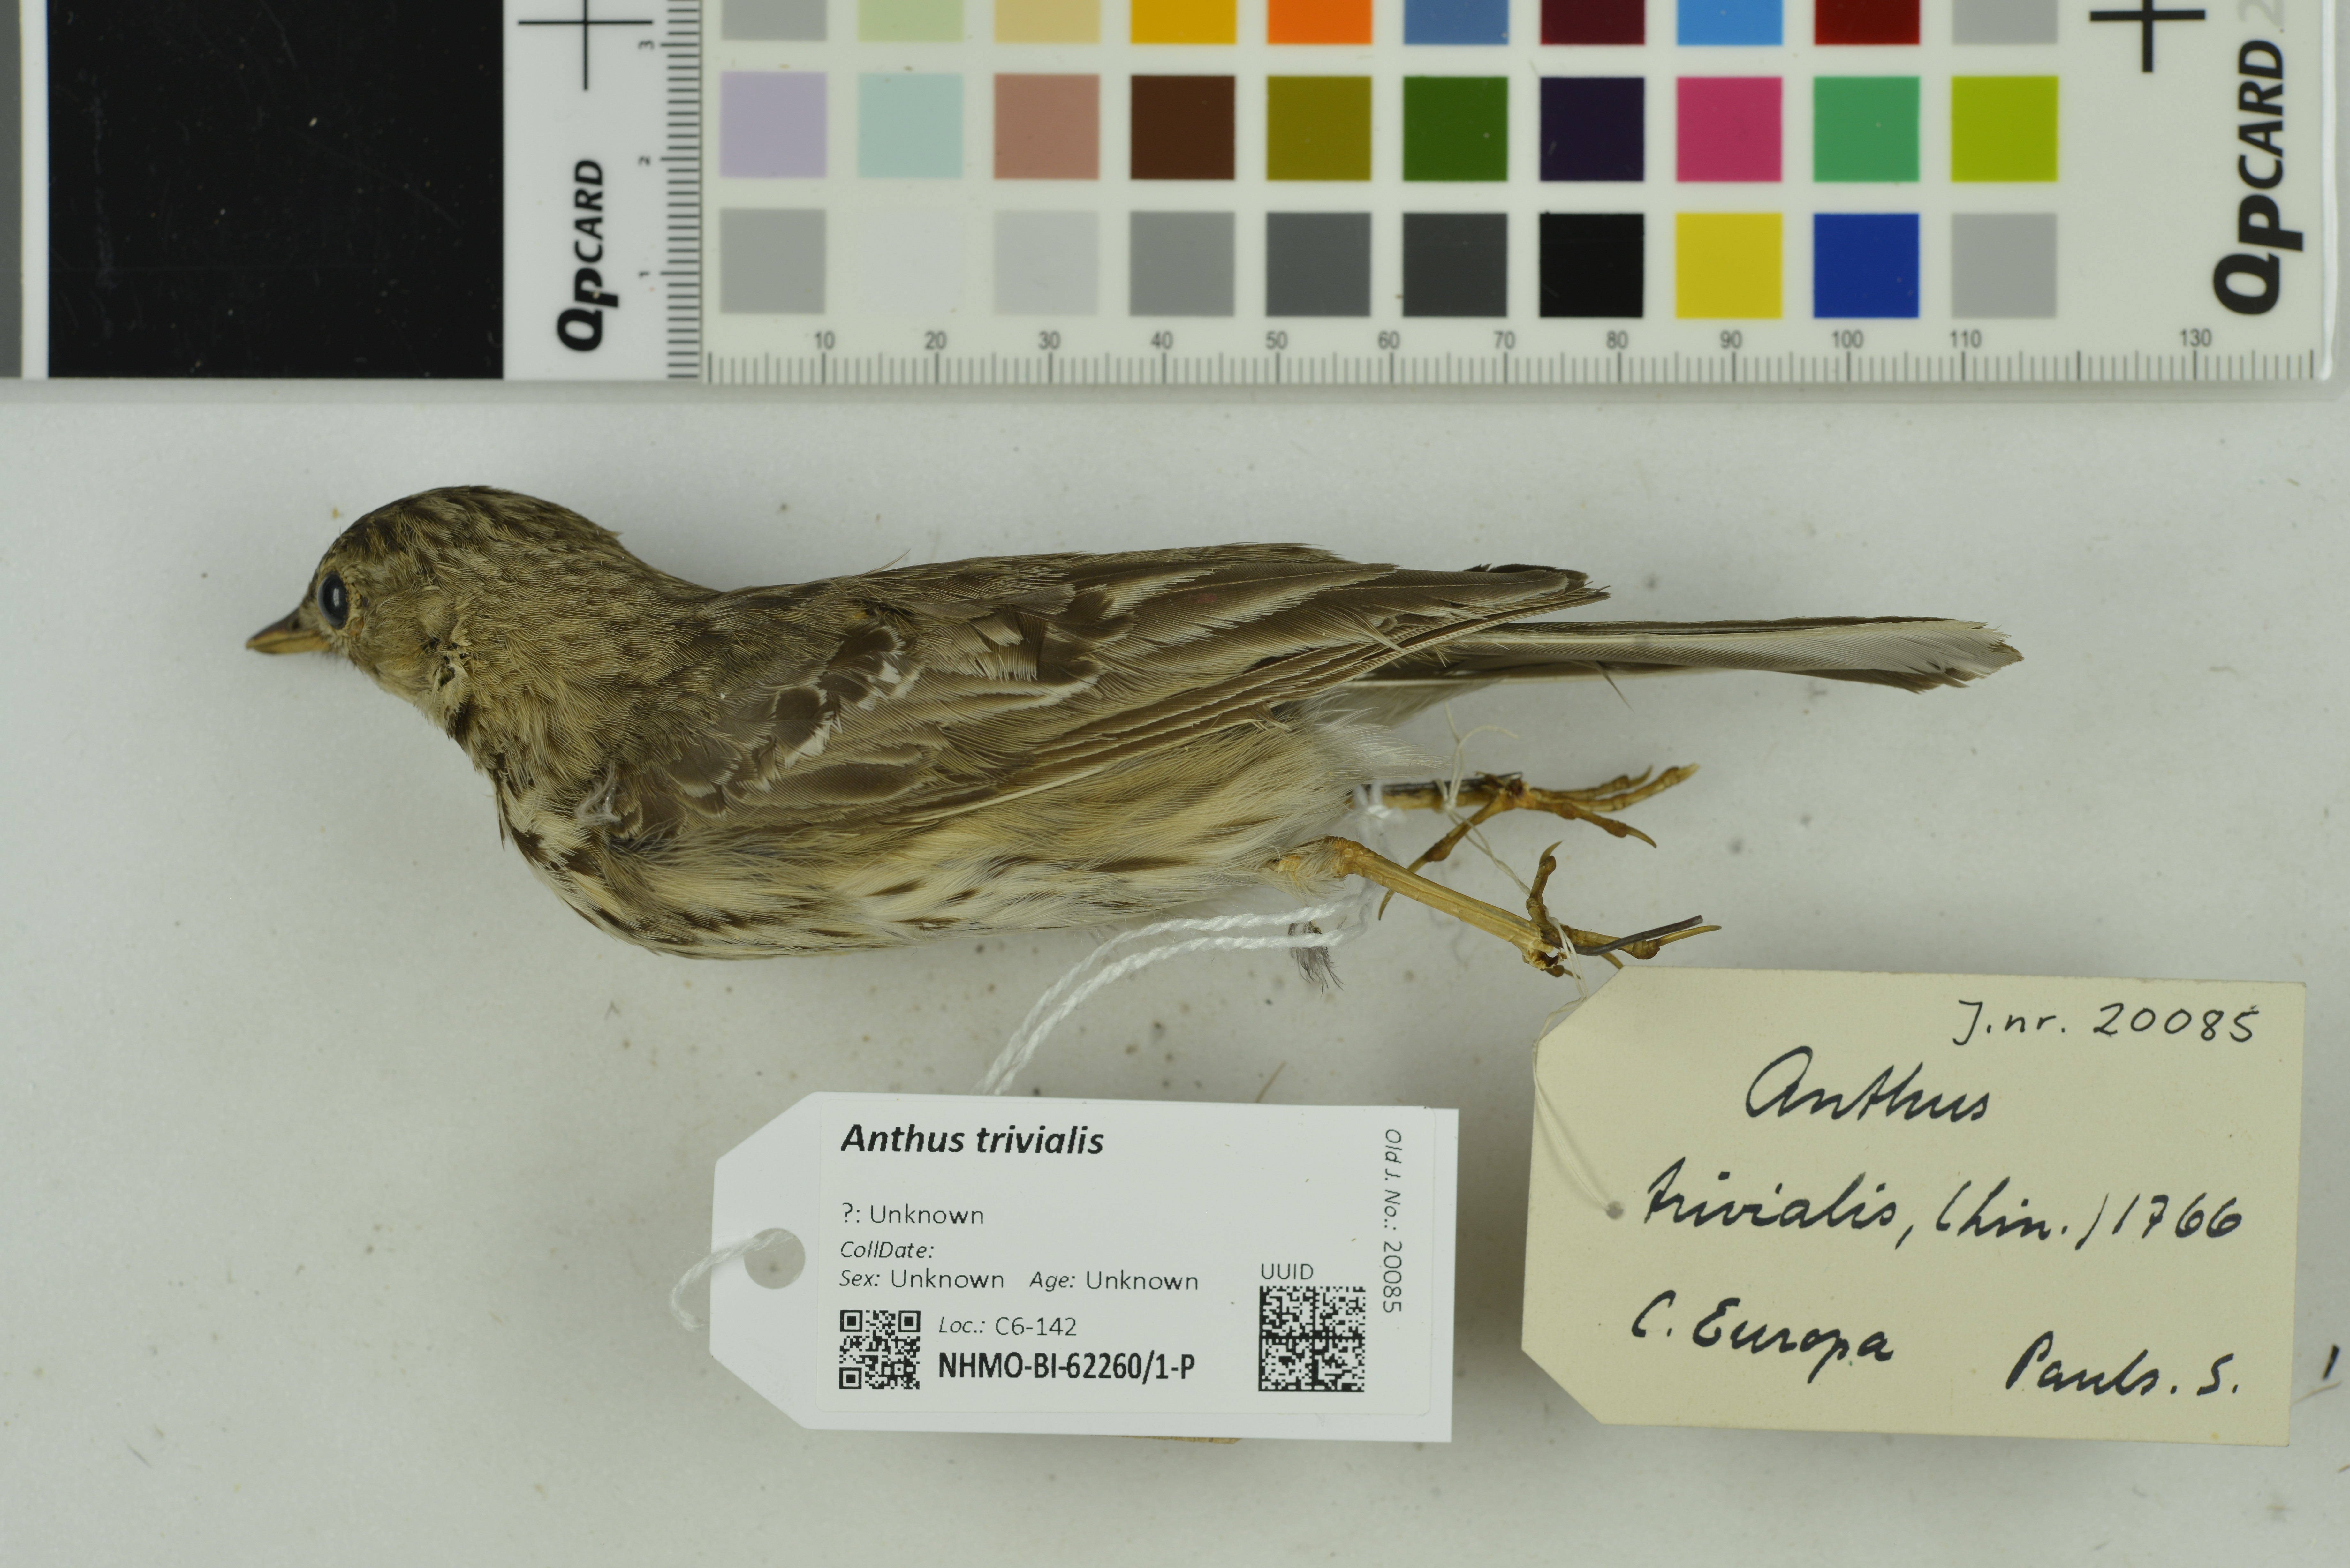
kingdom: Animalia
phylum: Chordata
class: Aves
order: Passeriformes
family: Motacillidae
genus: Anthus
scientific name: Anthus trivialis
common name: Tree pipit
